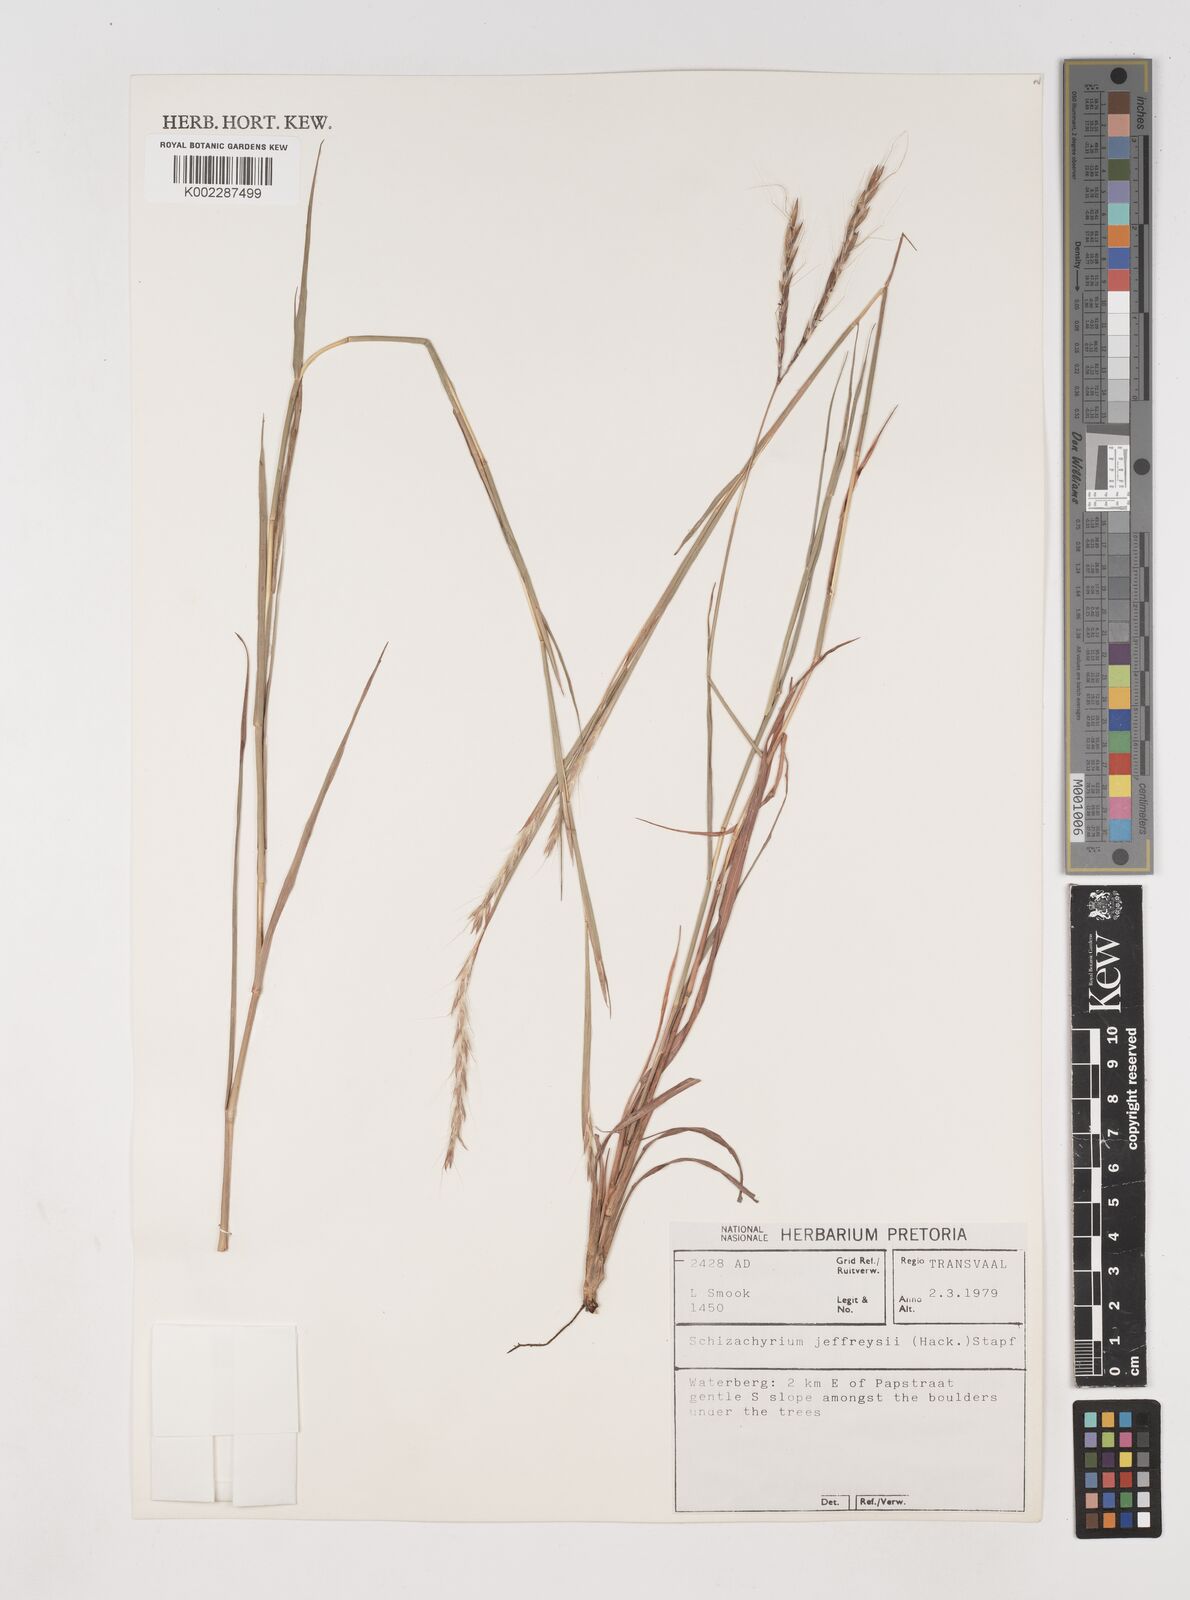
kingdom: Plantae
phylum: Tracheophyta
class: Liliopsida
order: Poales
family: Poaceae
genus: Schizachyrium
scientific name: Schizachyrium jeffreysii
